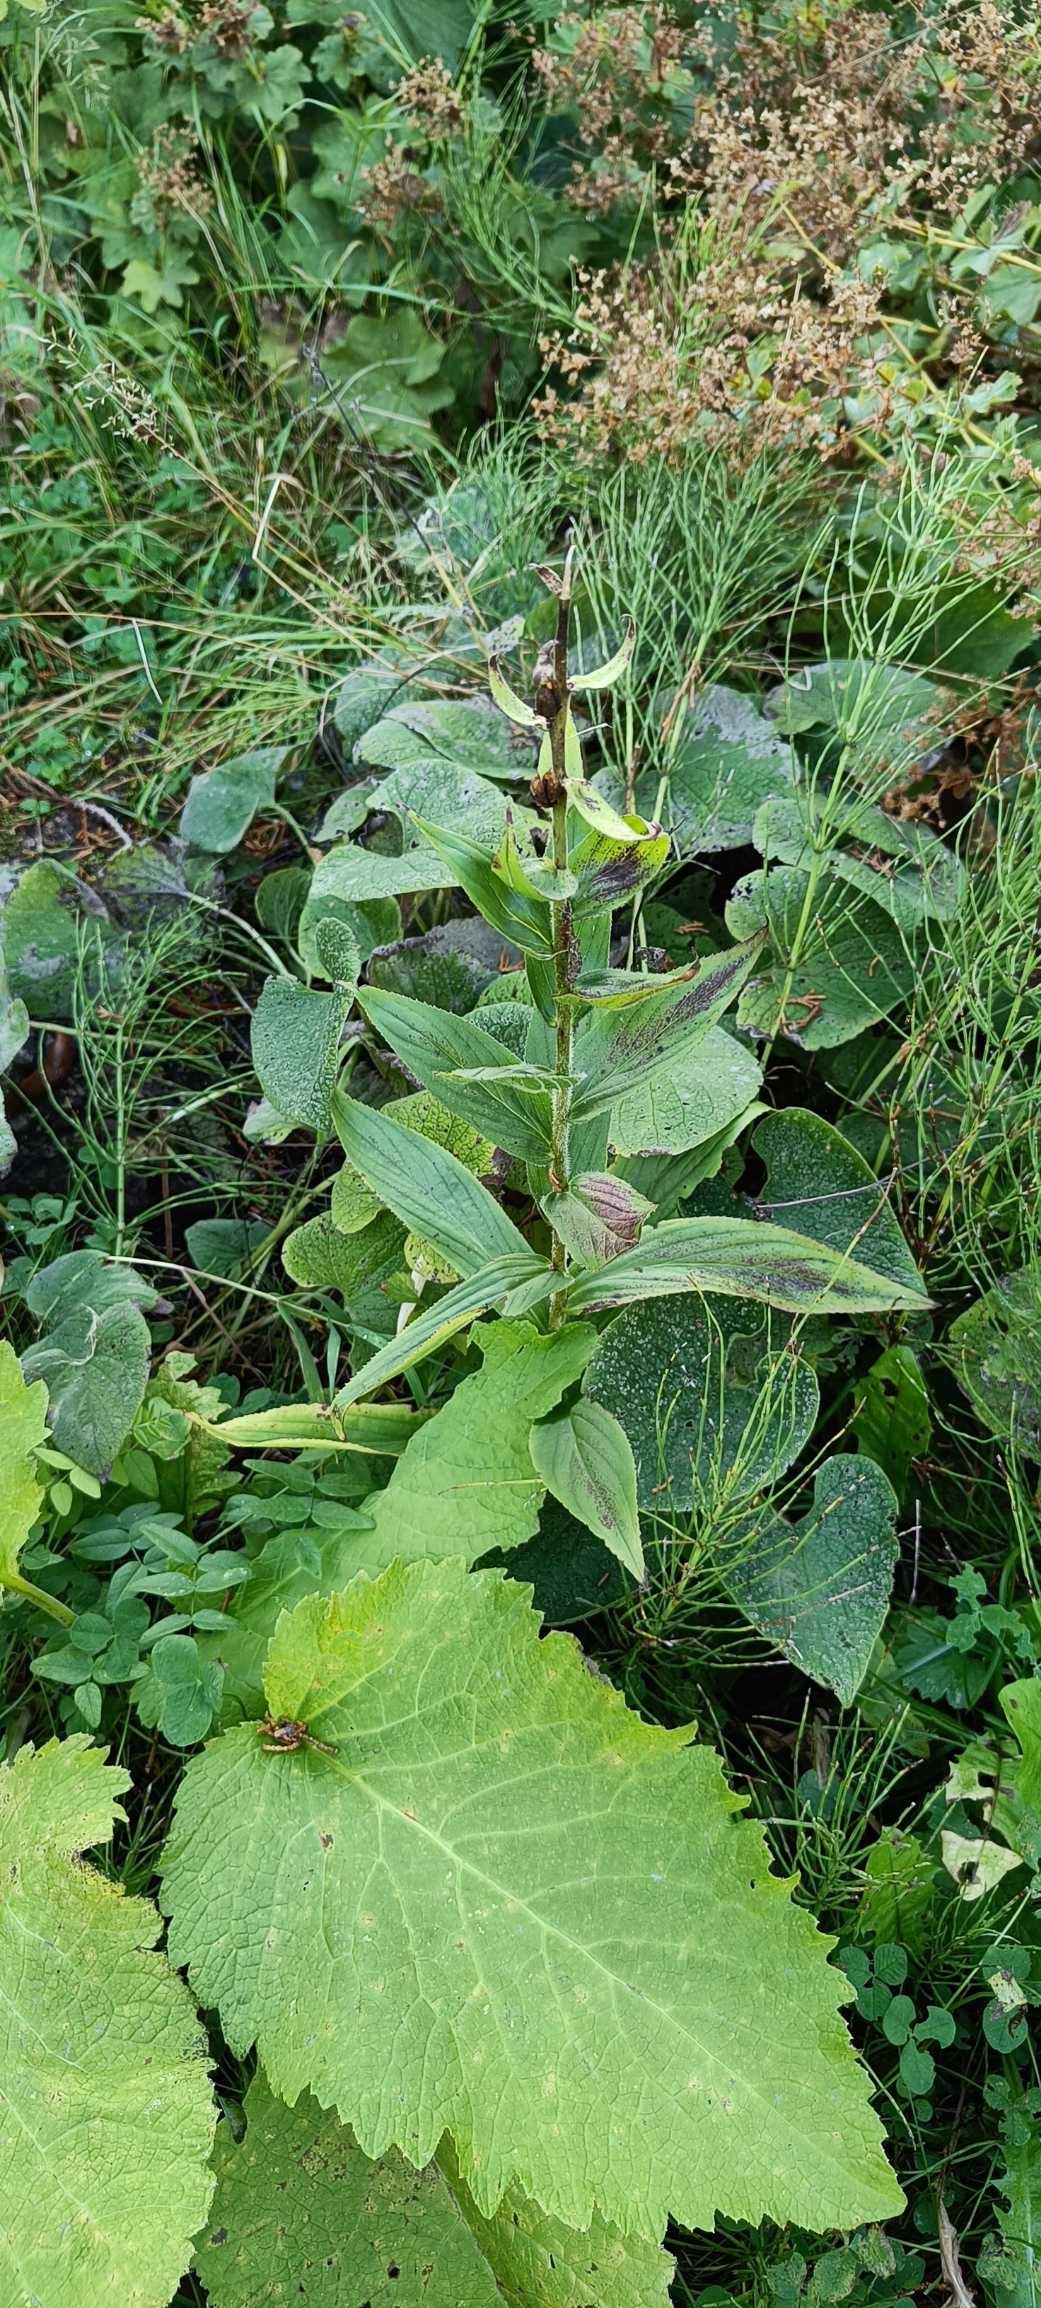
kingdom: Plantae
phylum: Tracheophyta
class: Liliopsida
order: Asparagales
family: Orchidaceae
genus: Epipactis
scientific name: Epipactis helleborine
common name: Skov-hullæbe
